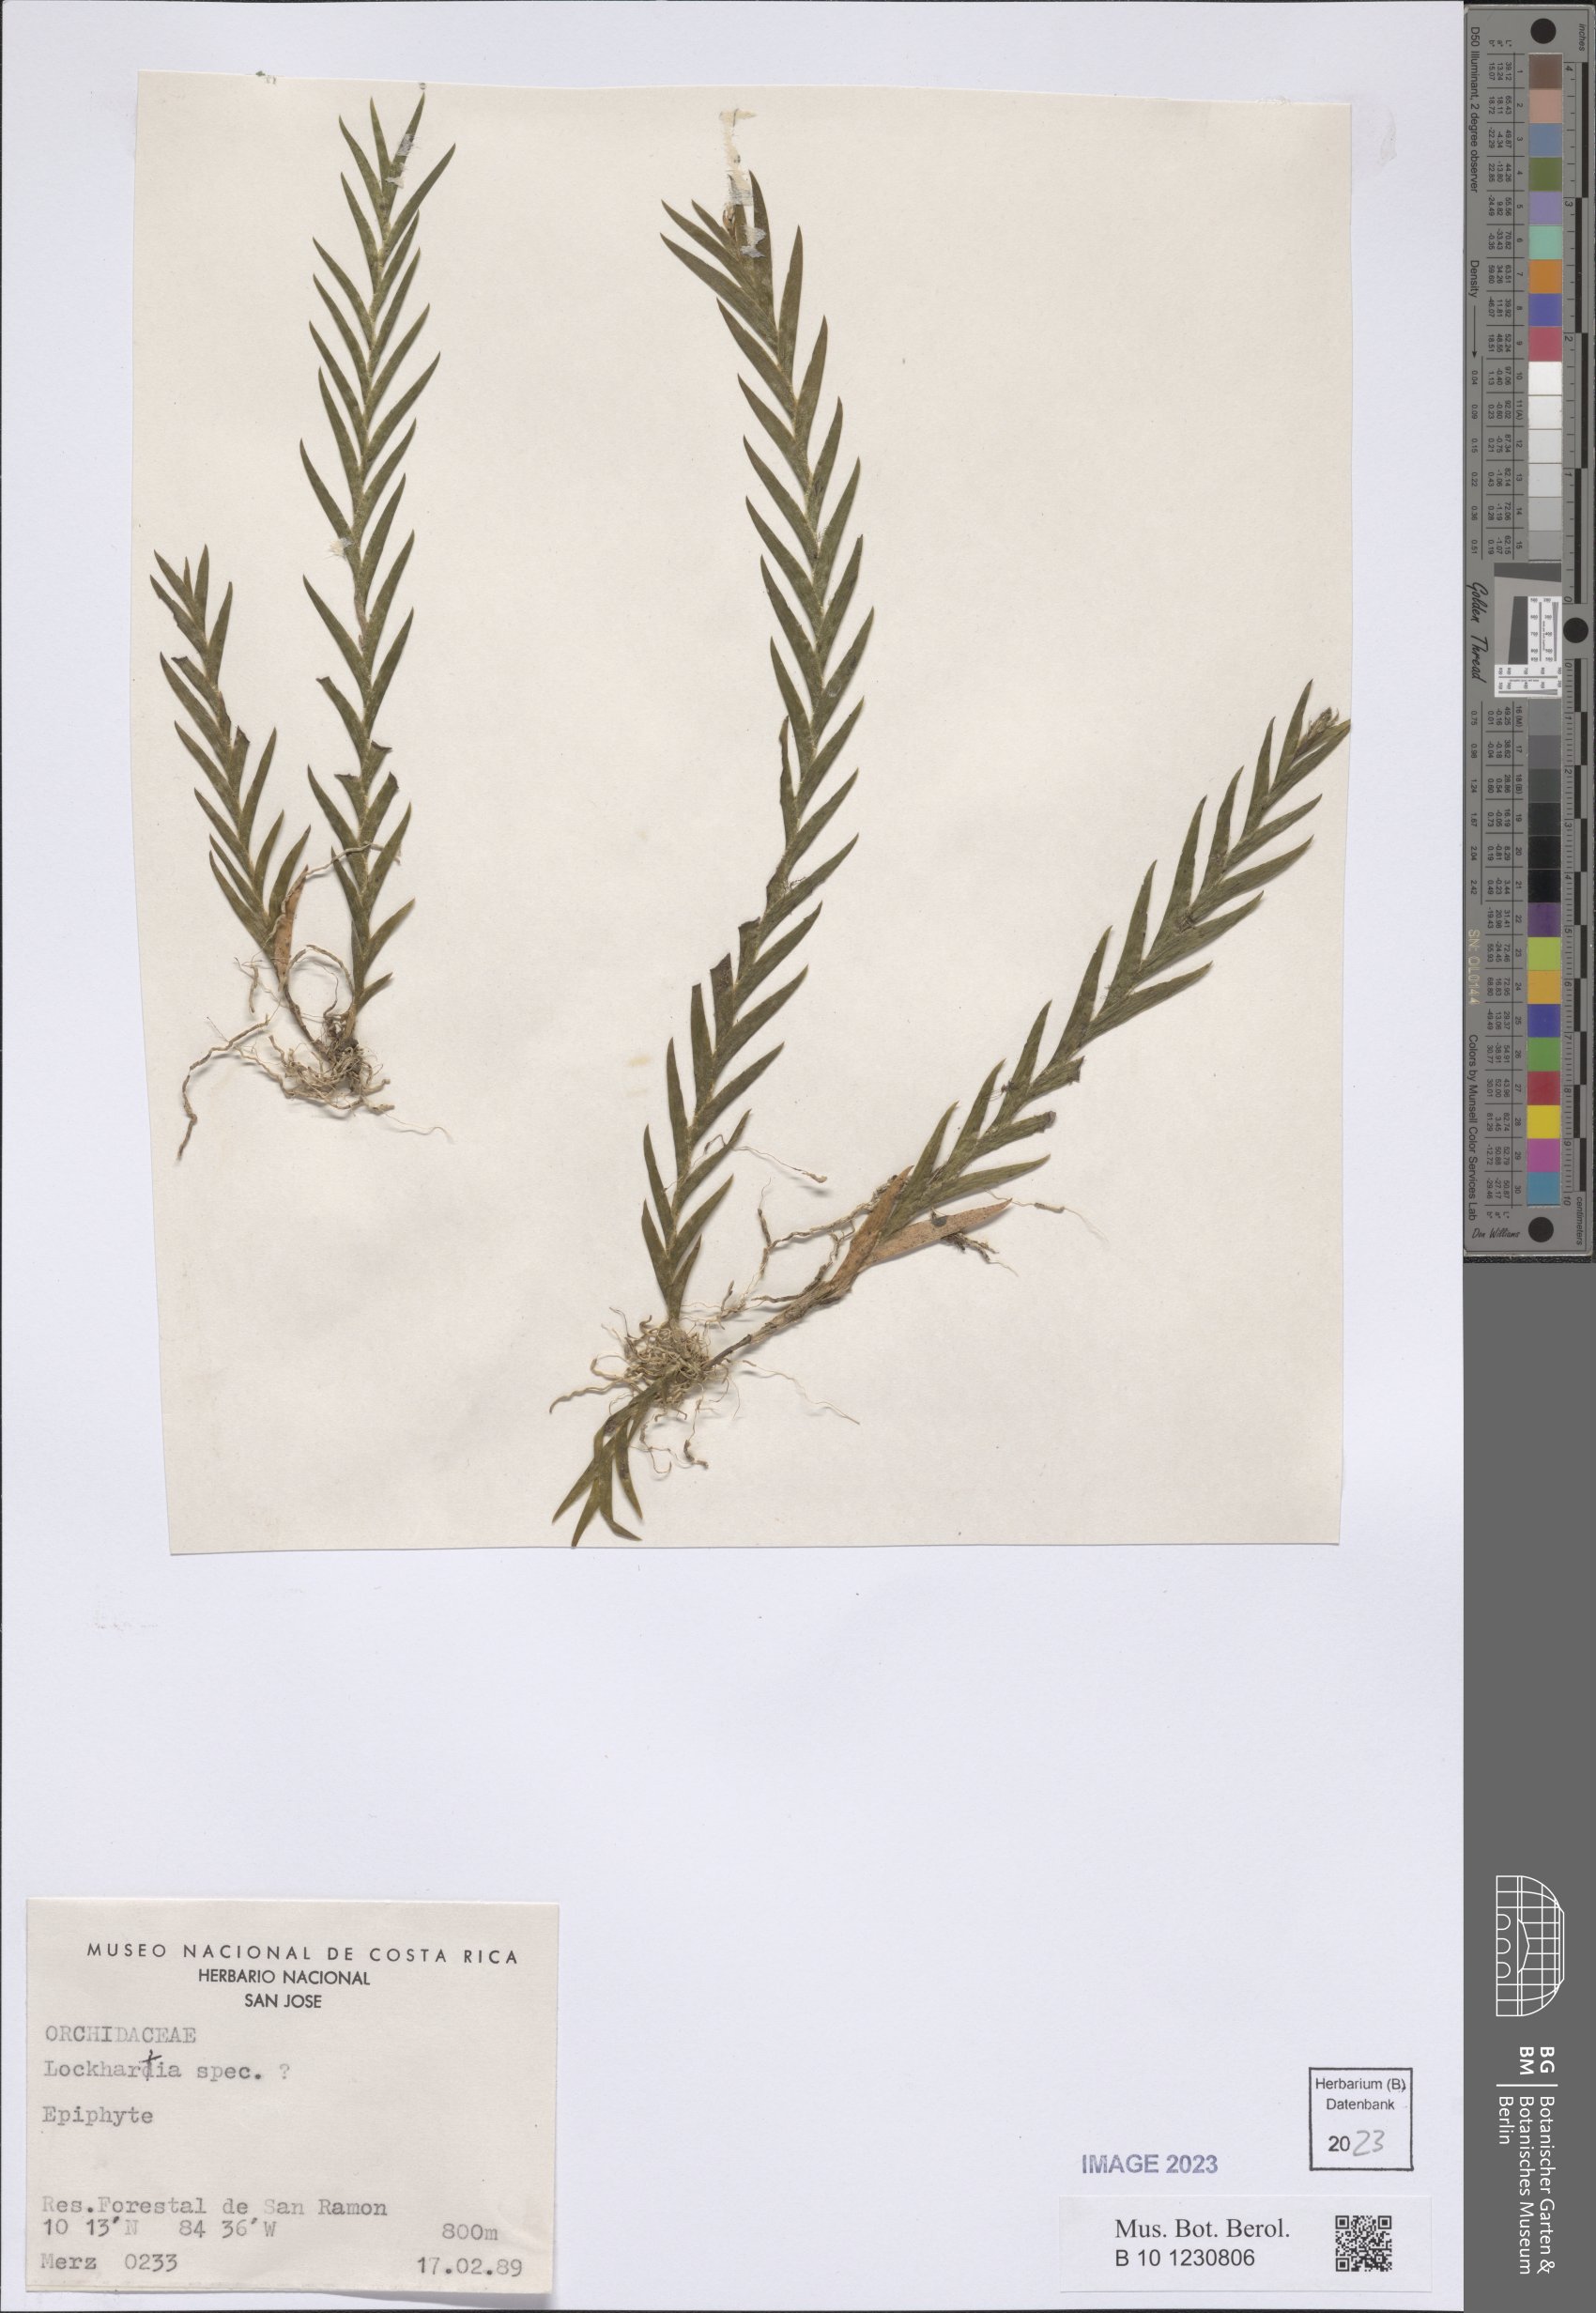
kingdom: Plantae
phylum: Tracheophyta
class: Liliopsida
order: Asparagales
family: Orchidaceae
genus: Lockhartia
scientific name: Lockhartia
